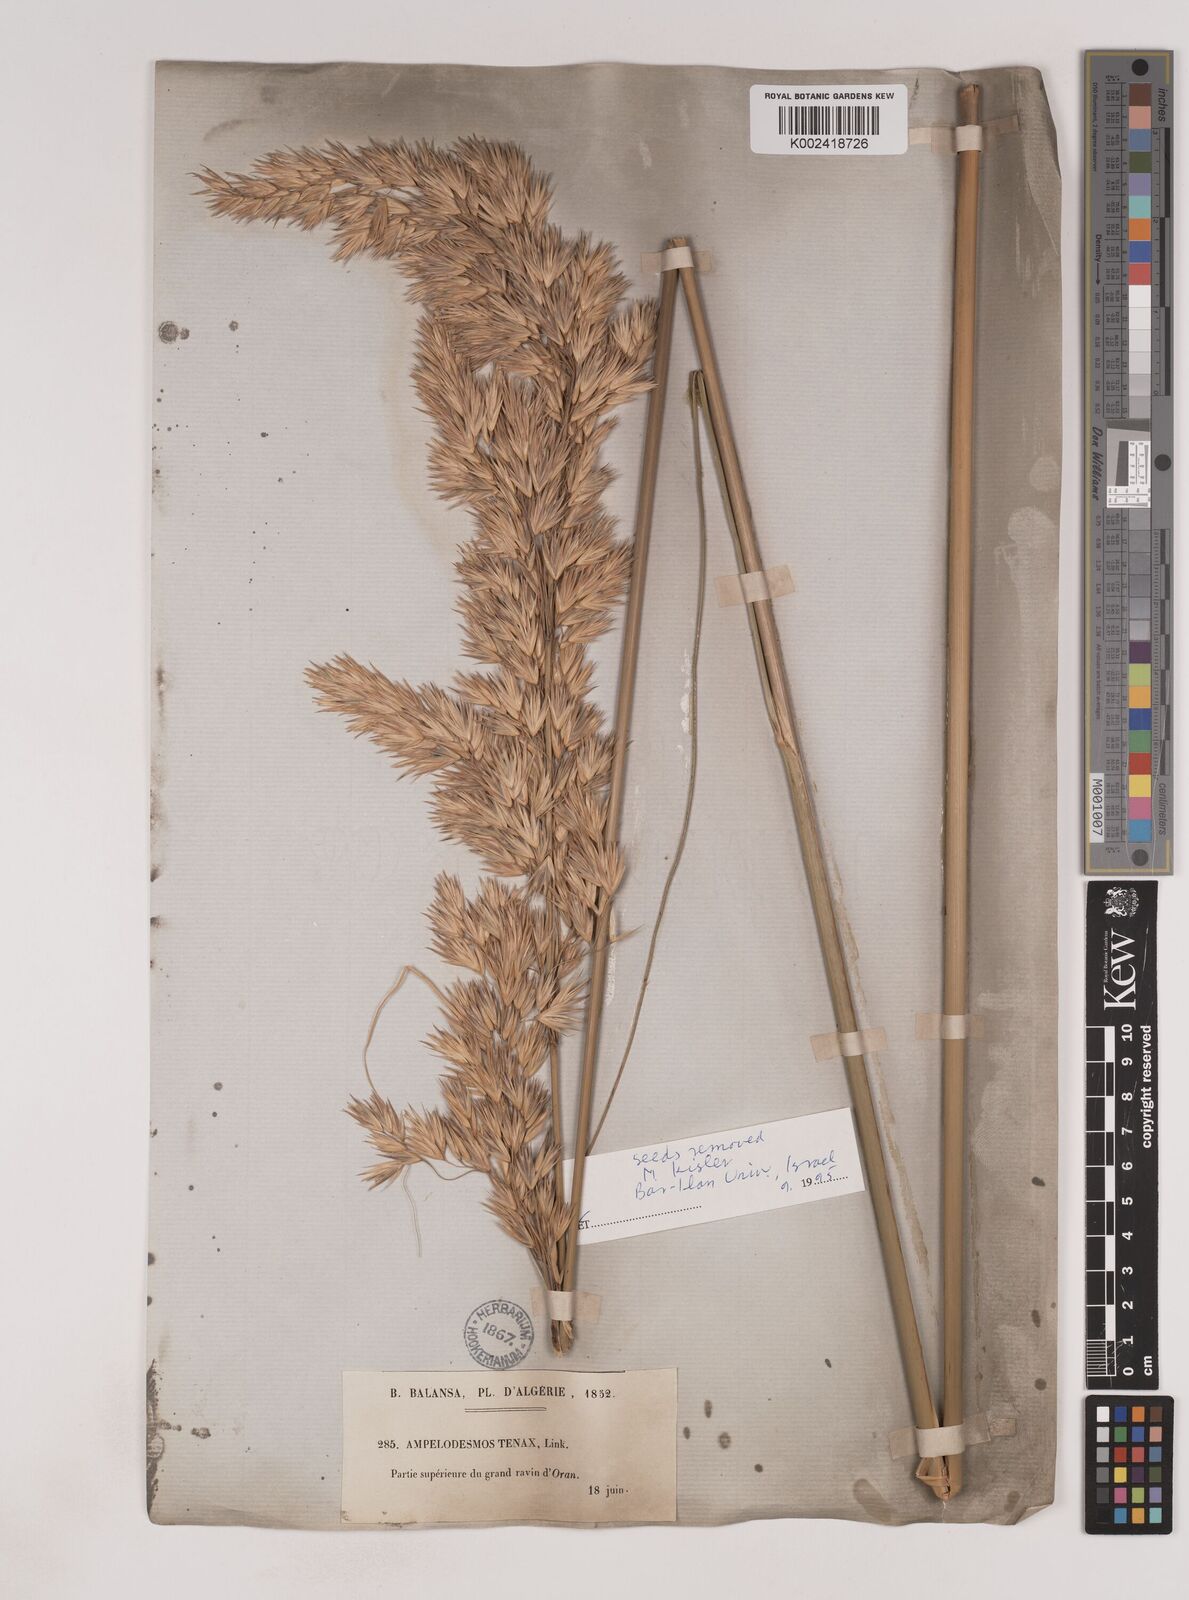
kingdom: Plantae
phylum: Tracheophyta
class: Liliopsida
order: Poales
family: Poaceae
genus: Ampelodesmos
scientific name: Ampelodesmos mauritanicus
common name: Mauritanian grass
